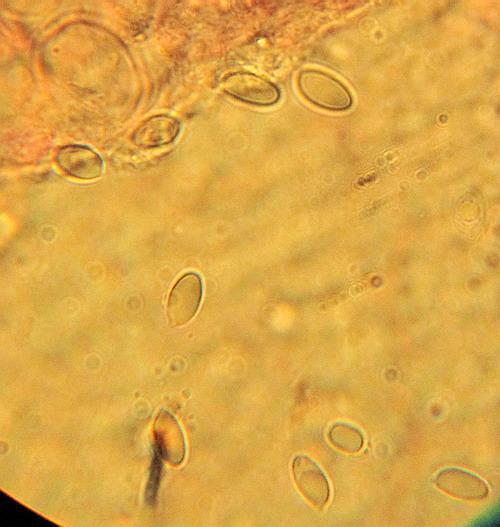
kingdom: Fungi
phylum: Basidiomycota
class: Agaricomycetes
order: Agaricales
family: Mycenaceae
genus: Mycena
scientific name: Mycena mirata
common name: krat-huesvamp
